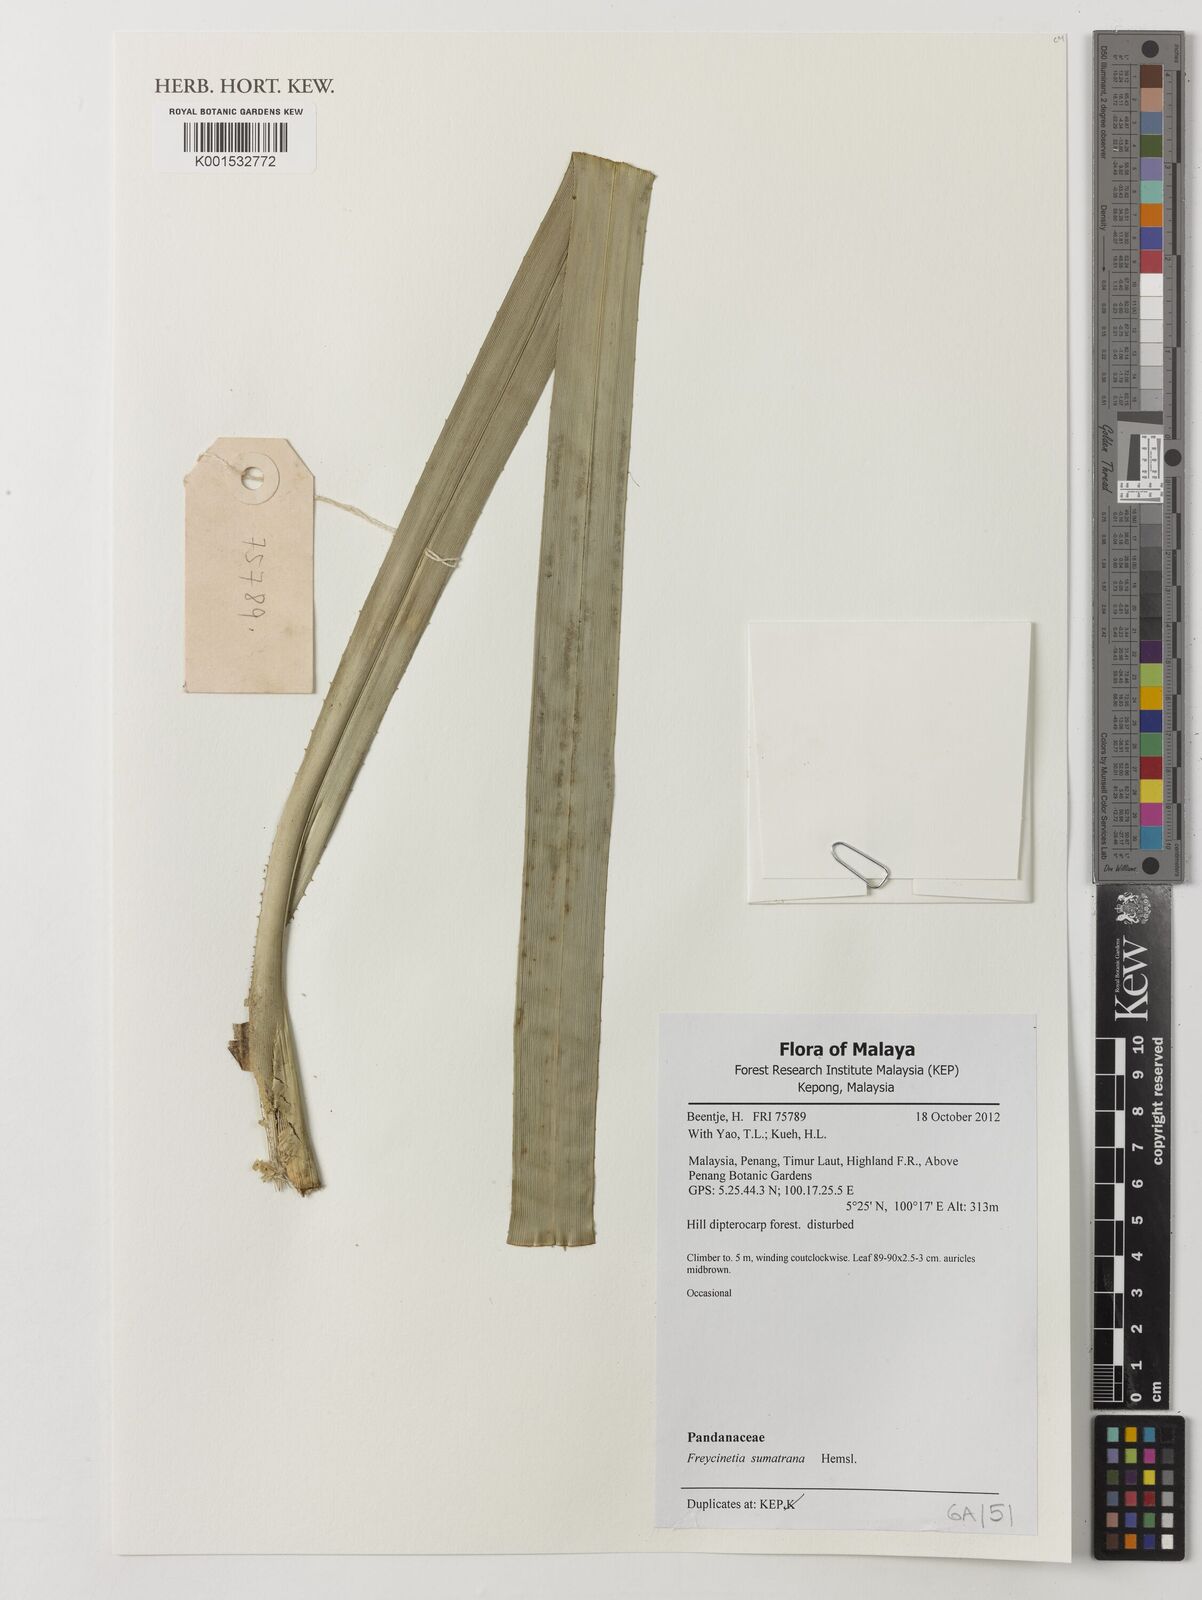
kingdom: Plantae
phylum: Tracheophyta
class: Liliopsida
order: Pandanales
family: Pandanaceae
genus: Freycinetia
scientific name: Freycinetia sumatrana
